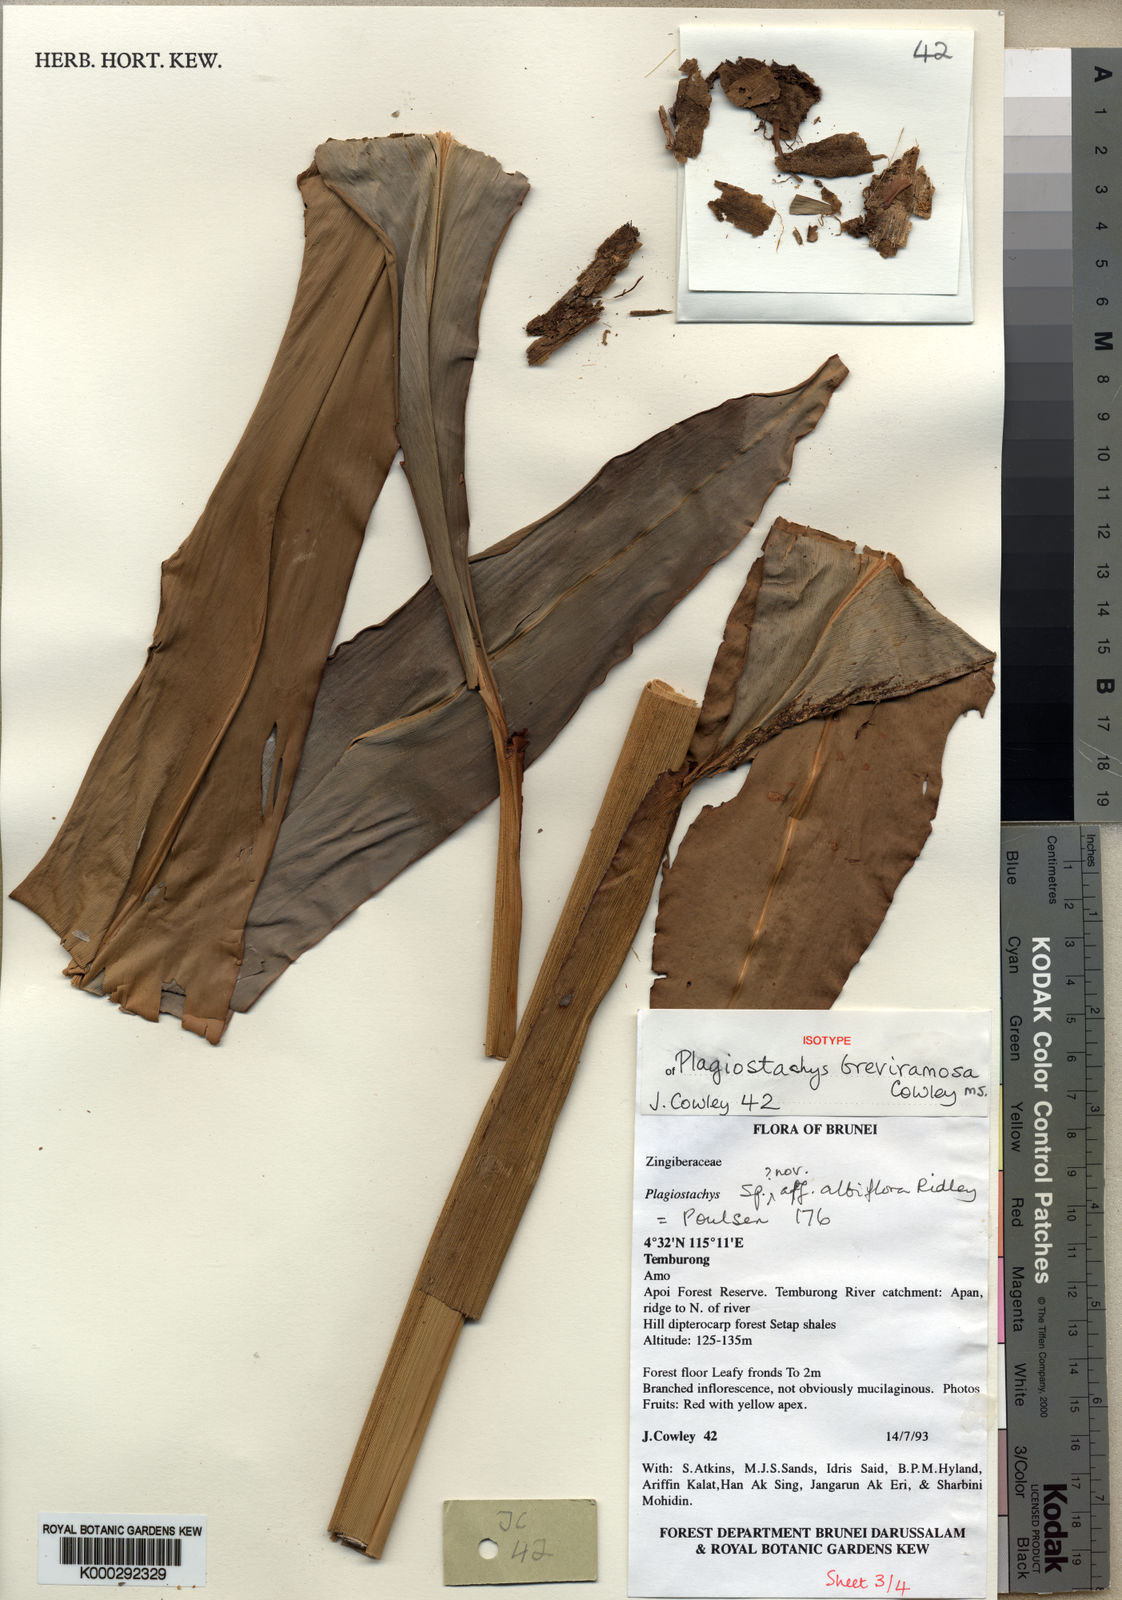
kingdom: Plantae
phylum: Tracheophyta
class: Liliopsida
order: Zingiberales
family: Zingiberaceae
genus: Plagiostachys
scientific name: Plagiostachys breviramosa
